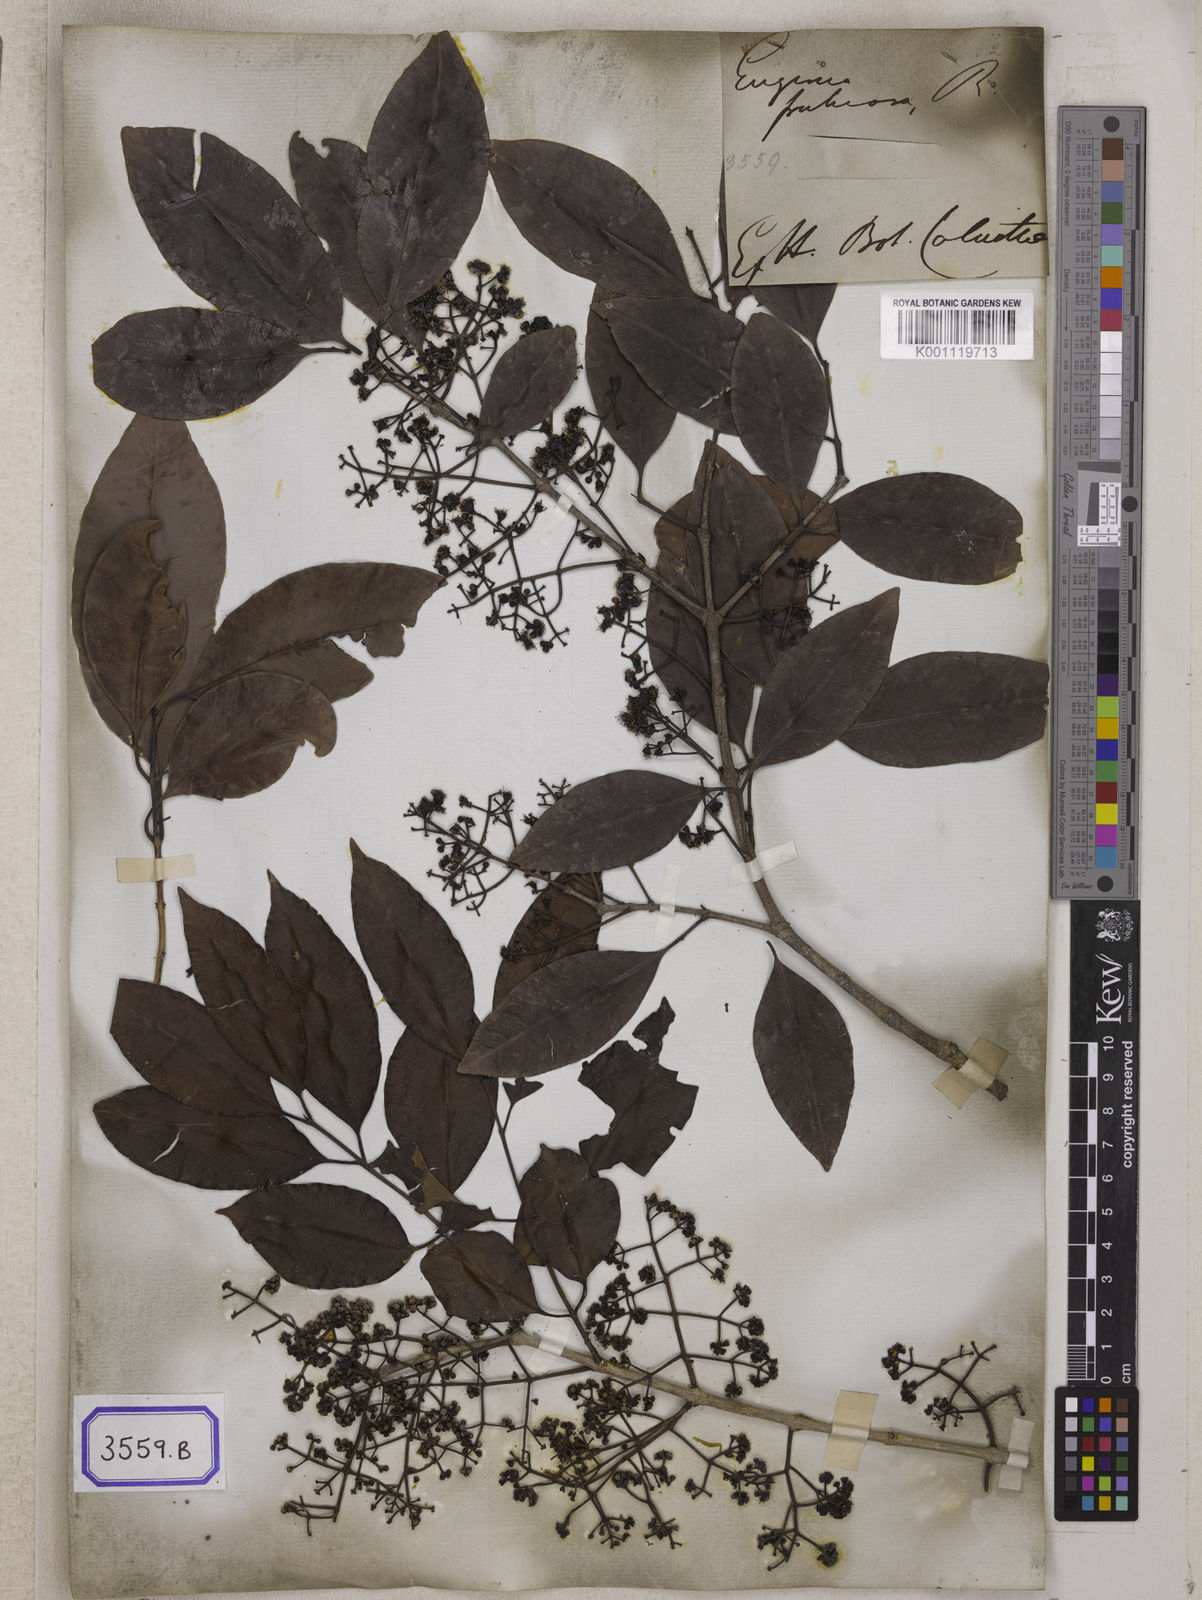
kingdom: Plantae
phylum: Tracheophyta
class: Magnoliopsida
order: Myrtales
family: Myrtaceae
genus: Syzygium
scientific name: Syzygium fruticosum
